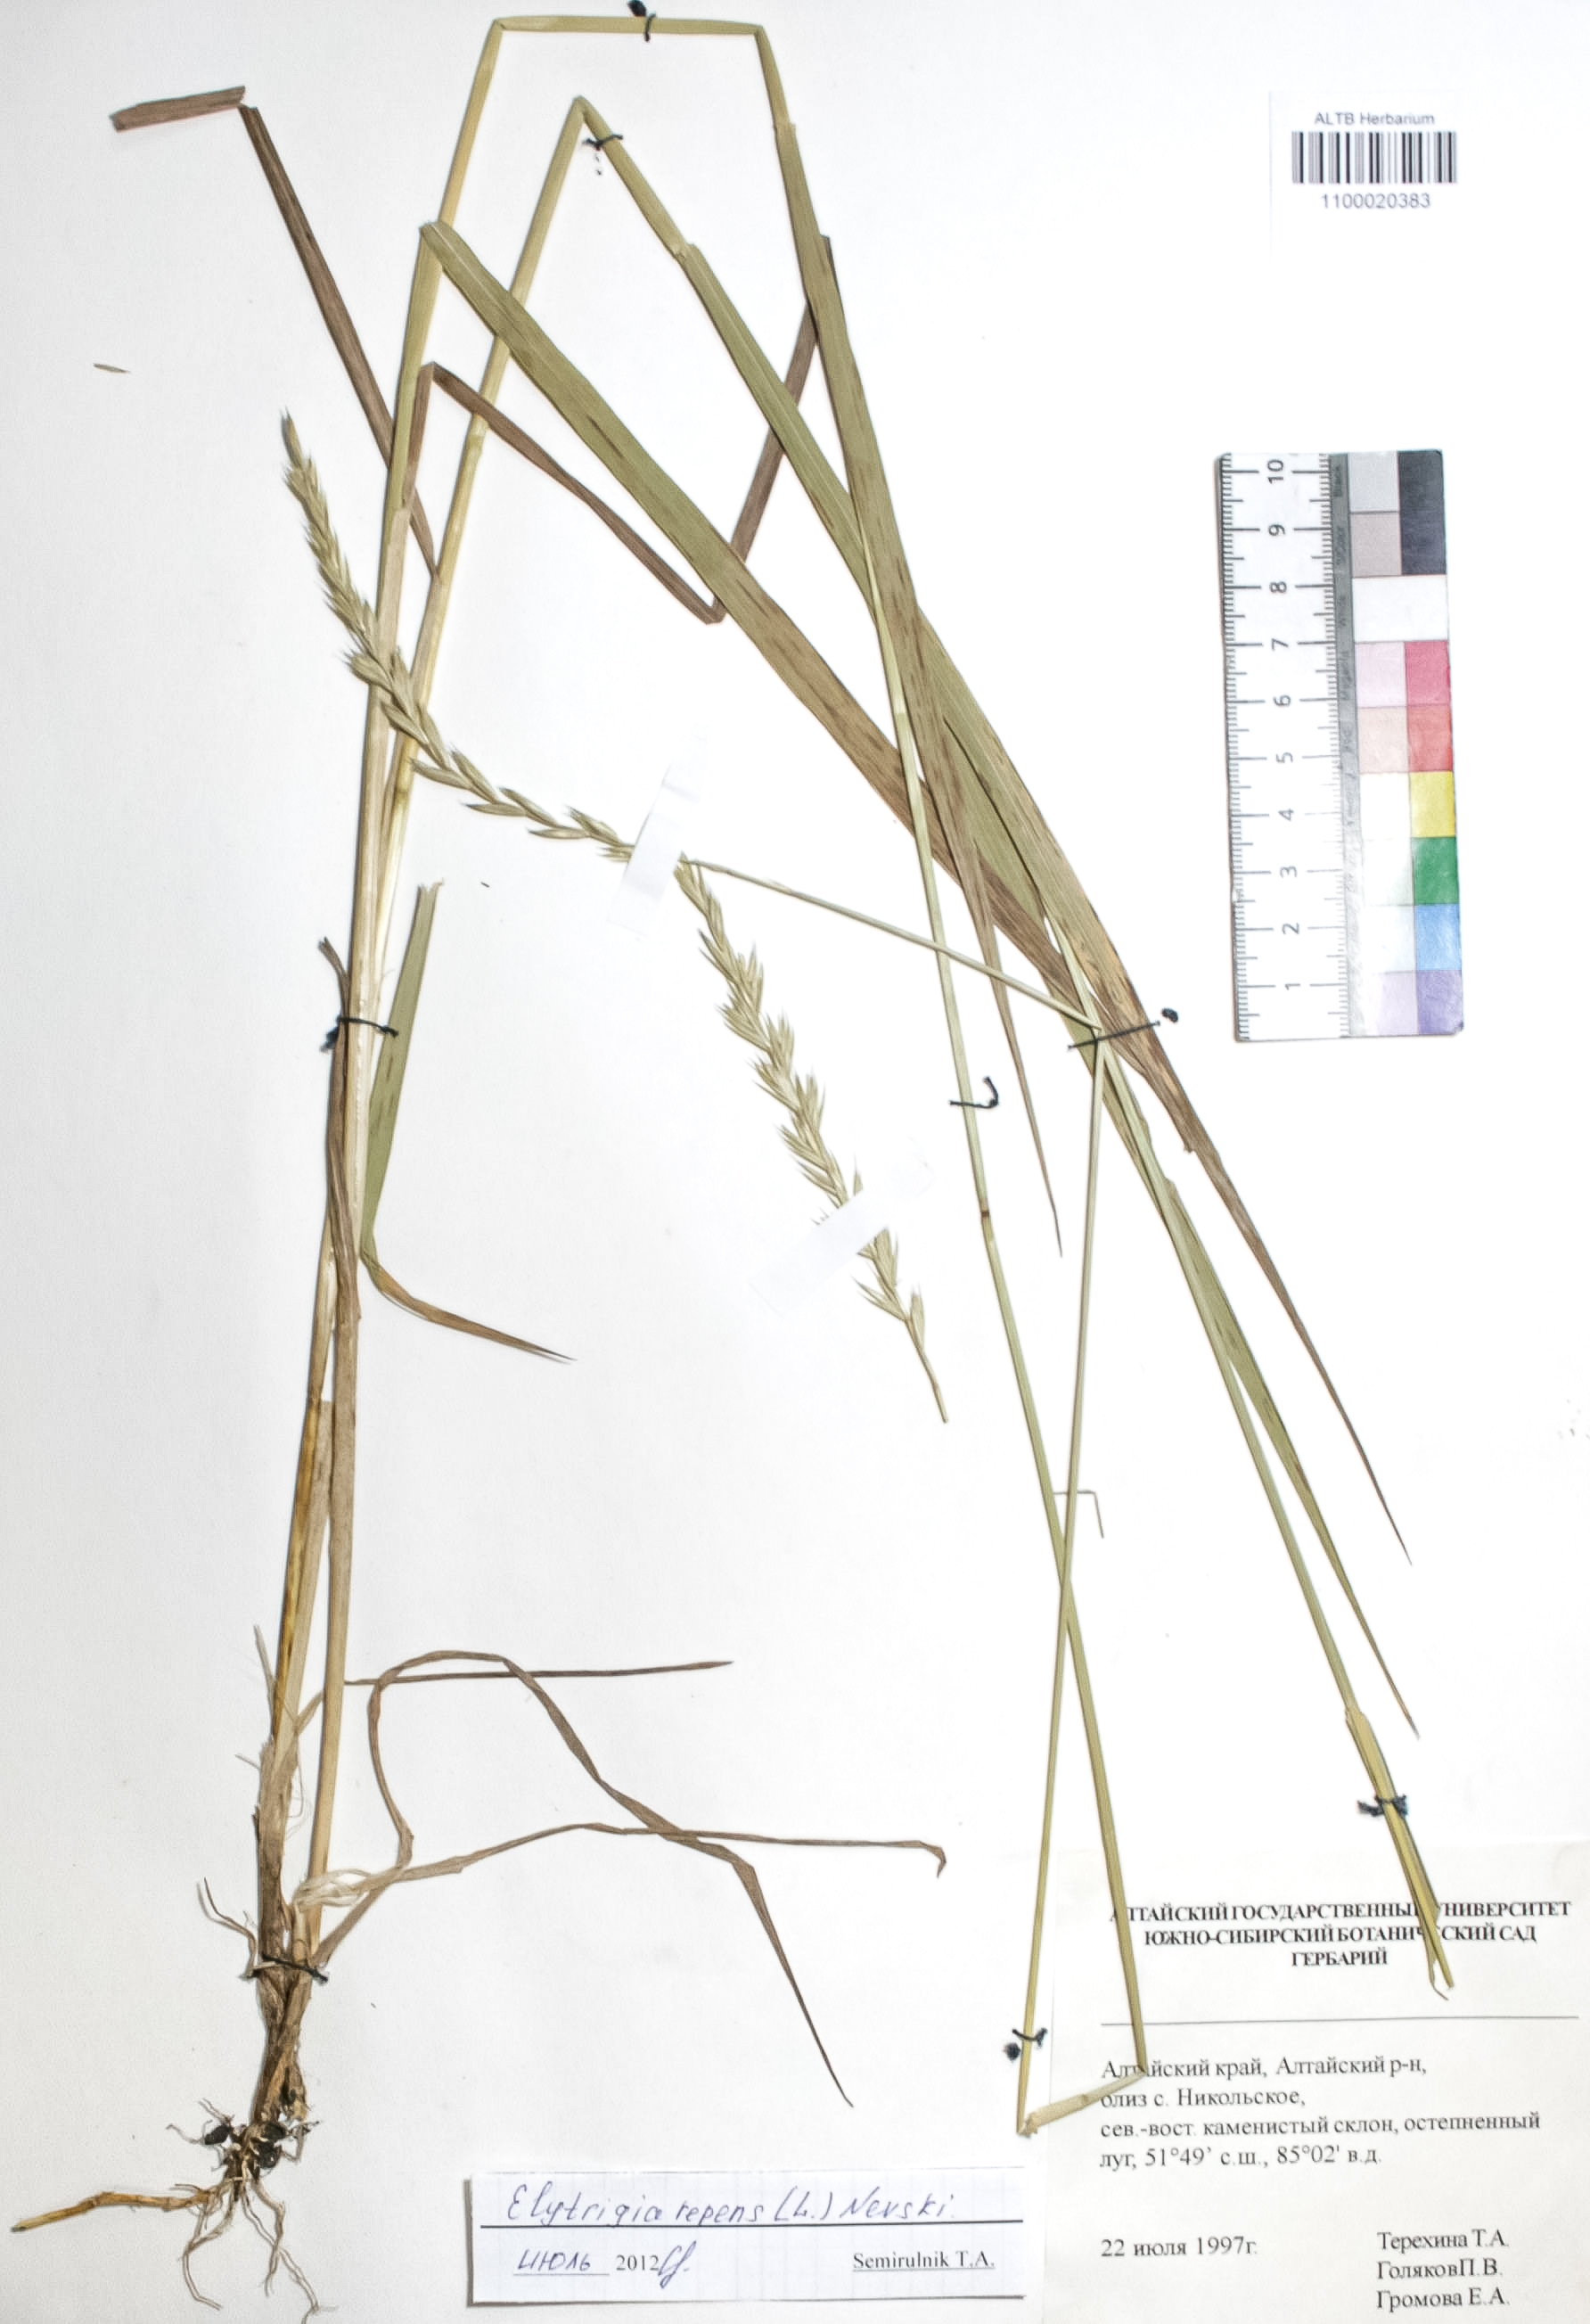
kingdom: Plantae
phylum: Tracheophyta
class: Liliopsida
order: Poales
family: Poaceae
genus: Elymus
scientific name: Elymus repens
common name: Quackgrass
